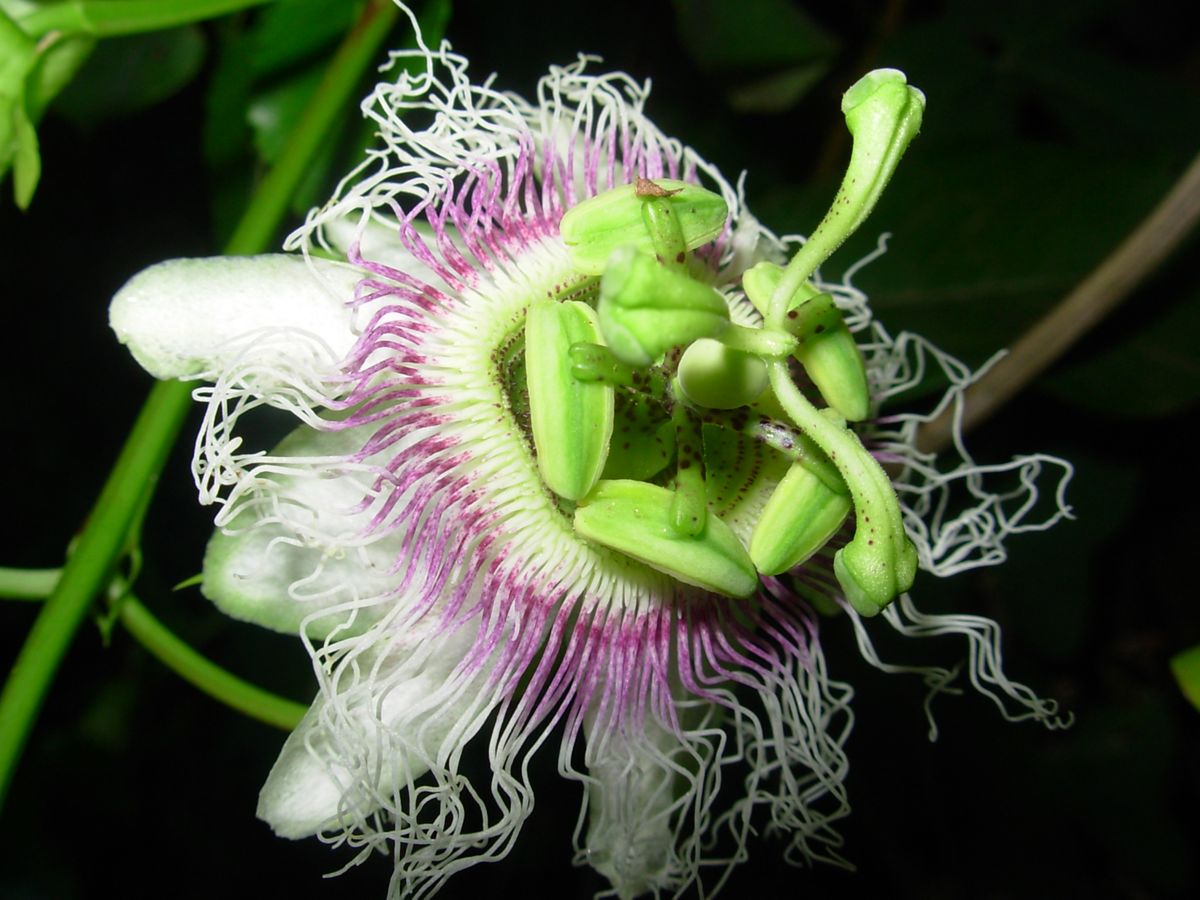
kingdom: Plantae
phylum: Tracheophyta
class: Magnoliopsida
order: Malpighiales
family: Passifloraceae
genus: Passiflora
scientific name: Passiflora edulis
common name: Purple granadilla
